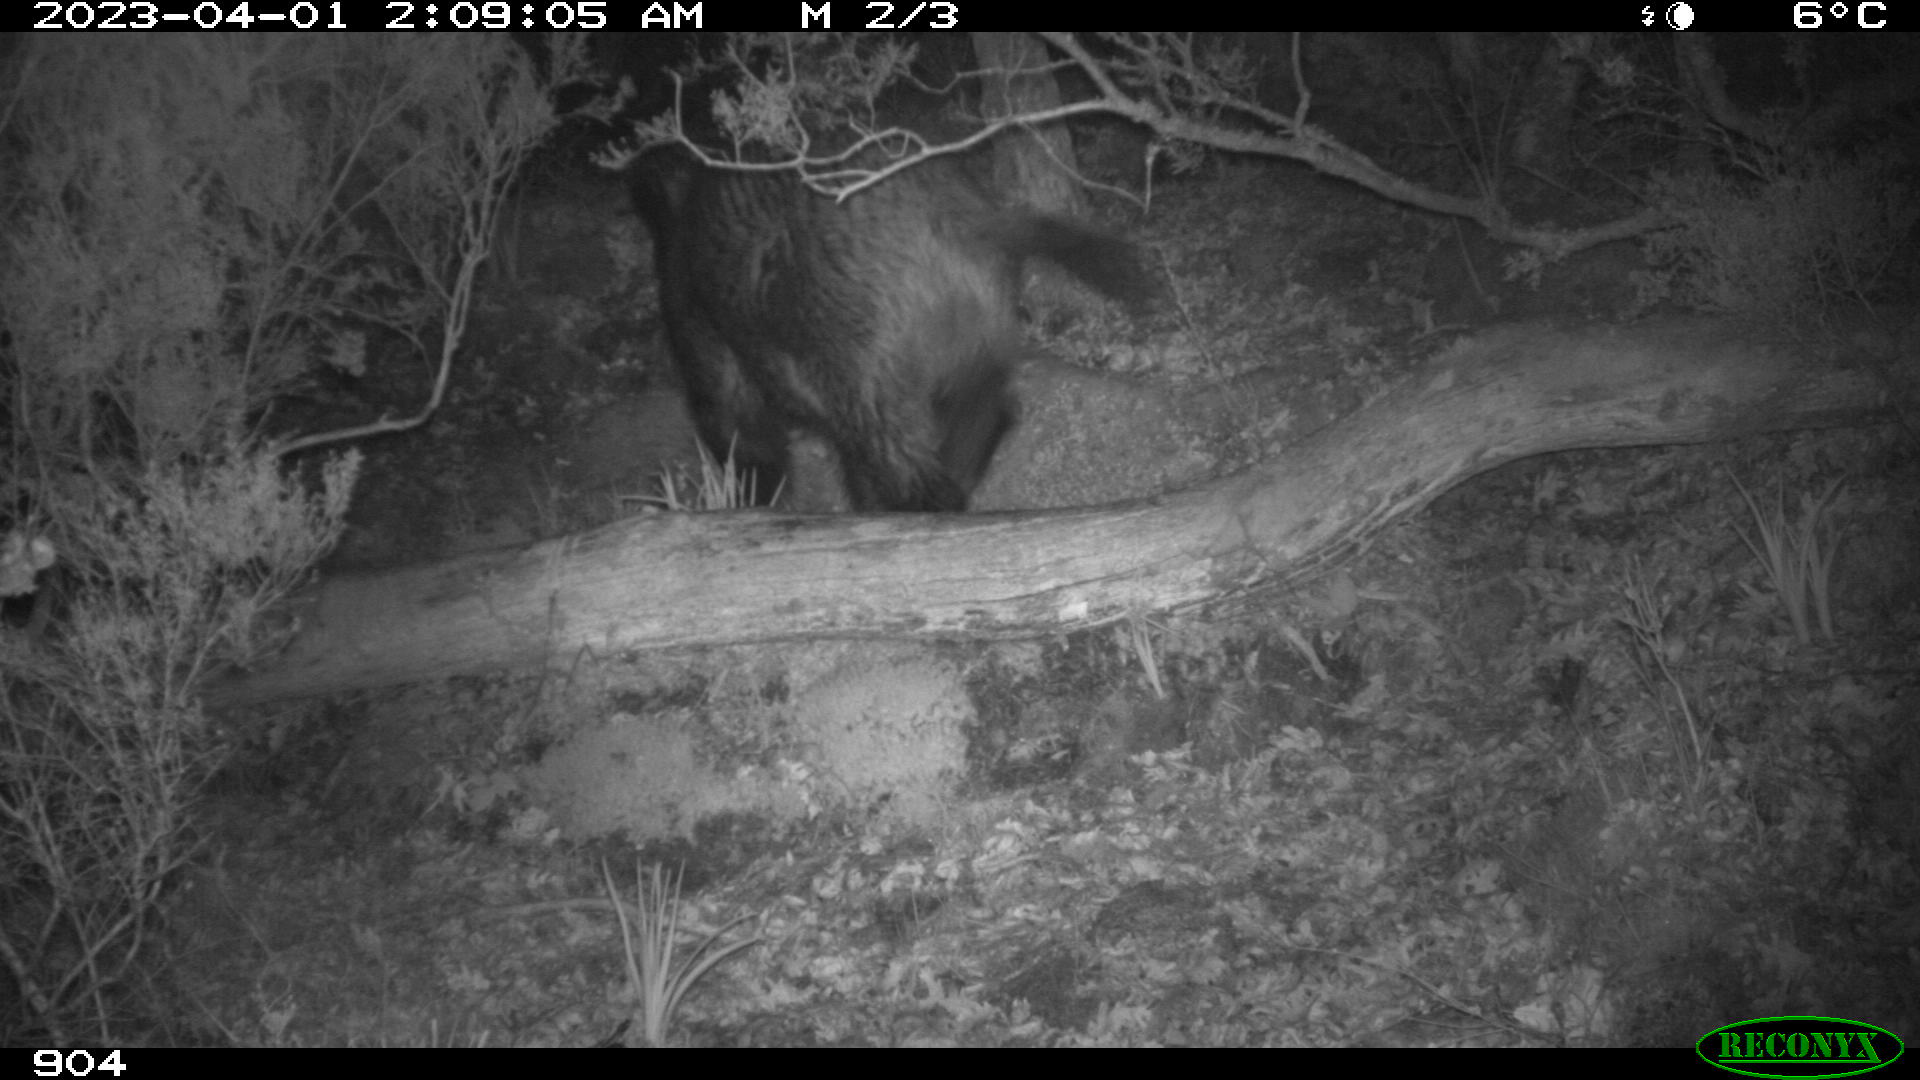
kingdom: Animalia
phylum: Chordata
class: Mammalia
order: Artiodactyla
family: Suidae
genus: Sus
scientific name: Sus scrofa
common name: Wild boar
